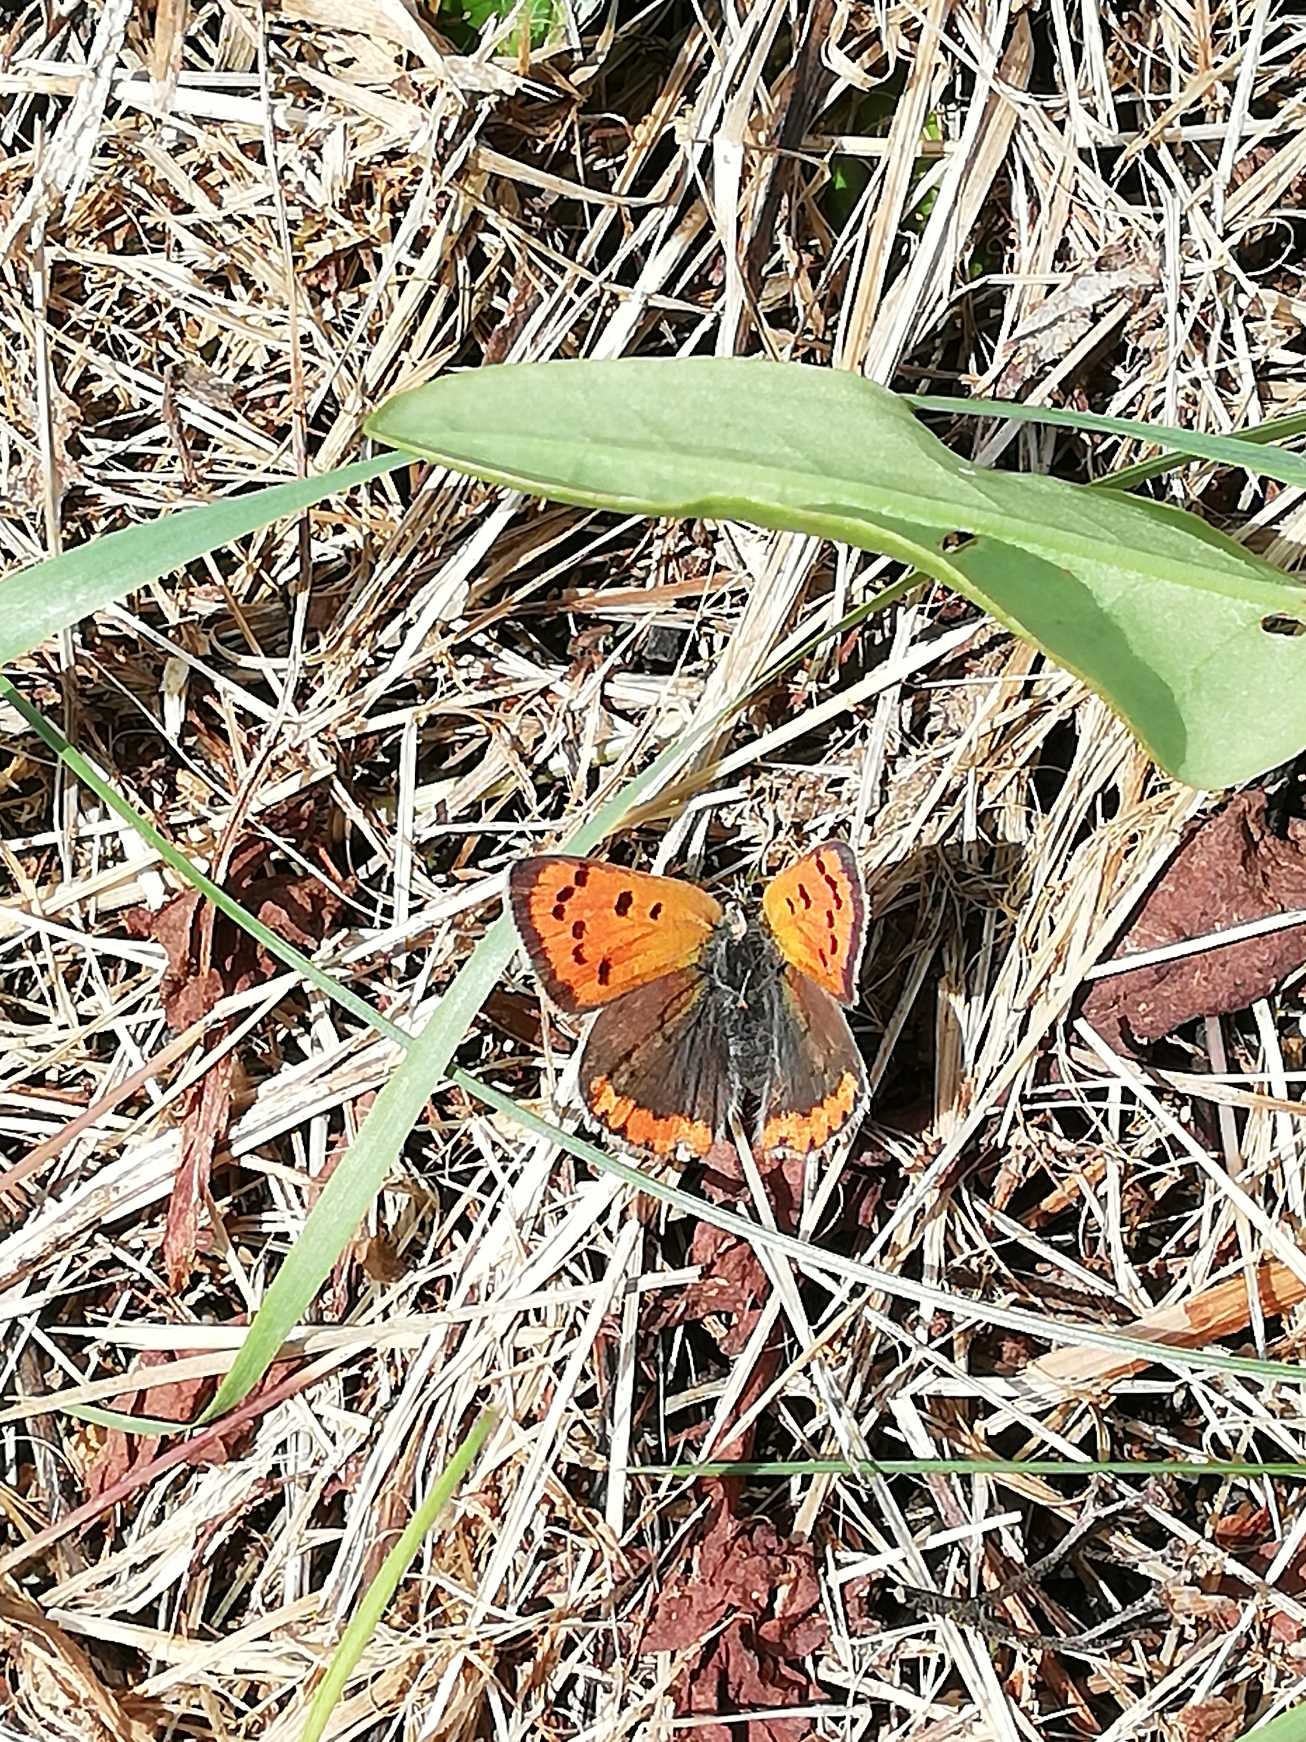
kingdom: Animalia
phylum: Arthropoda
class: Insecta
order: Lepidoptera
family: Lycaenidae
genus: Lycaena
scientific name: Lycaena phlaeas
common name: Lille ildfugl
